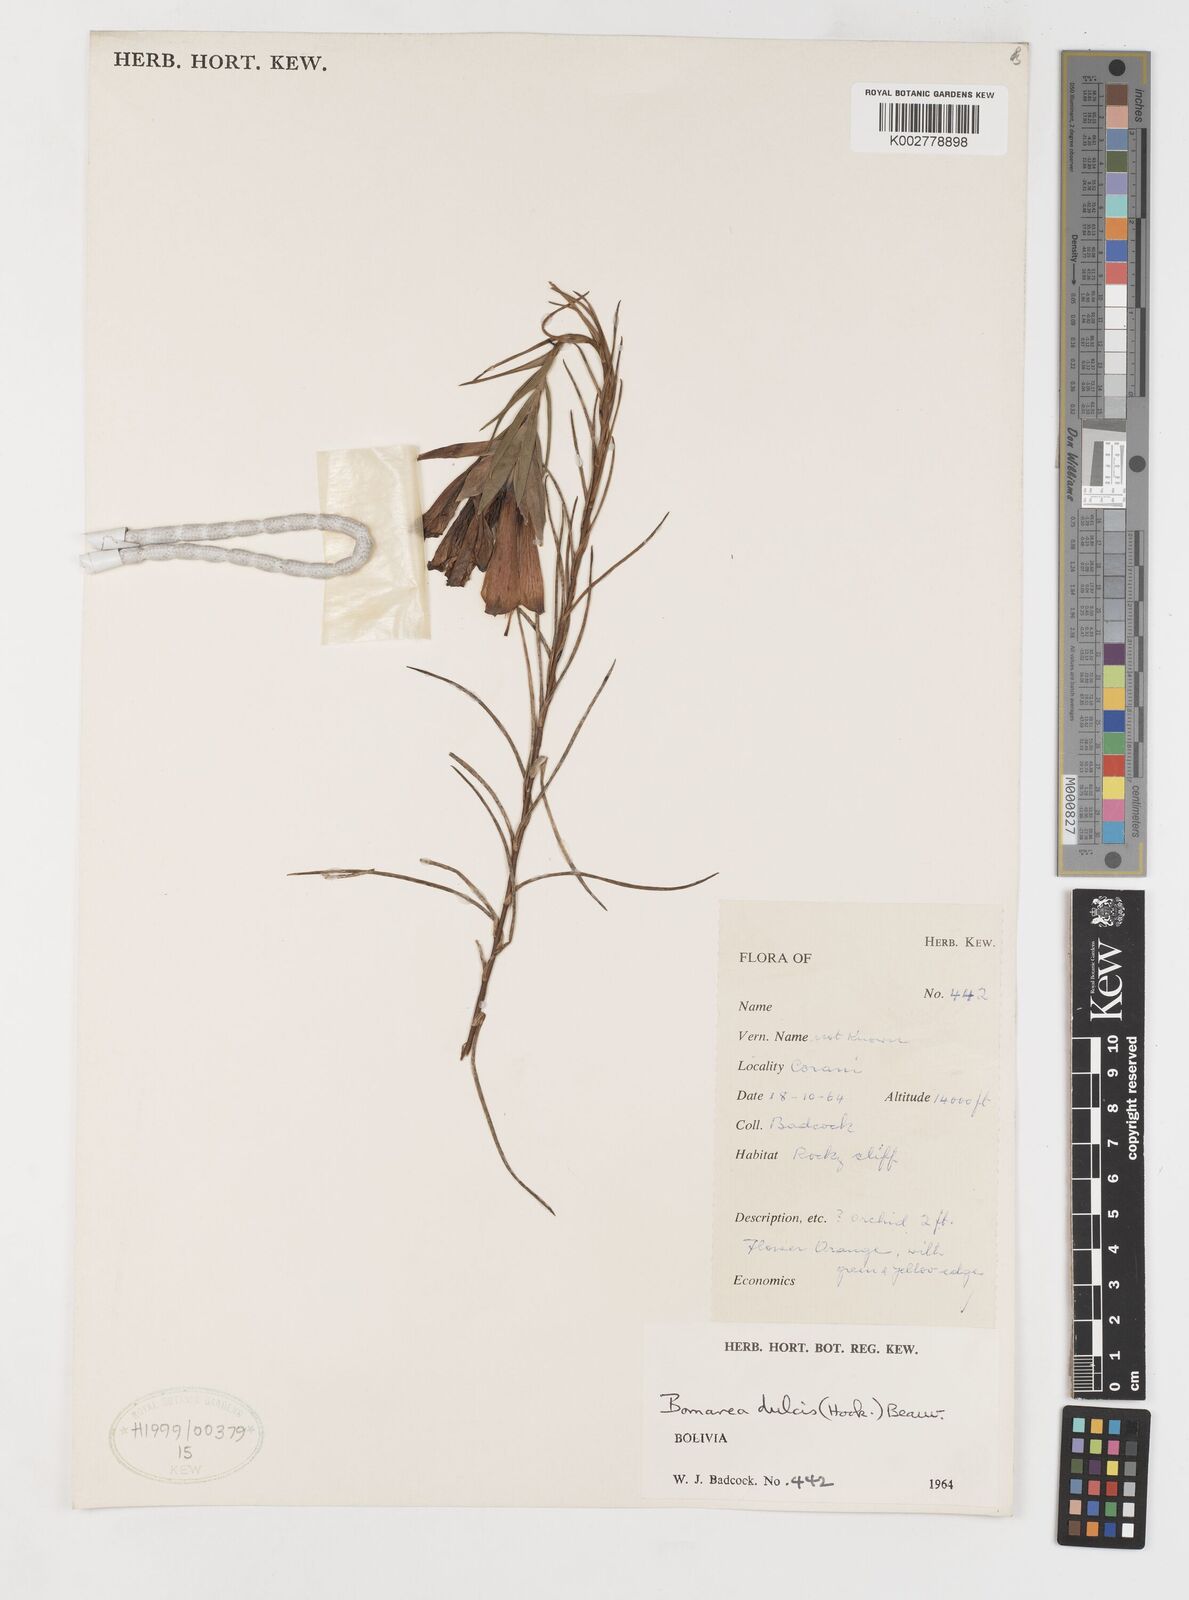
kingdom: Plantae
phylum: Tracheophyta
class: Liliopsida
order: Liliales
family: Alstroemeriaceae
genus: Bomarea
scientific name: Bomarea dulcis
